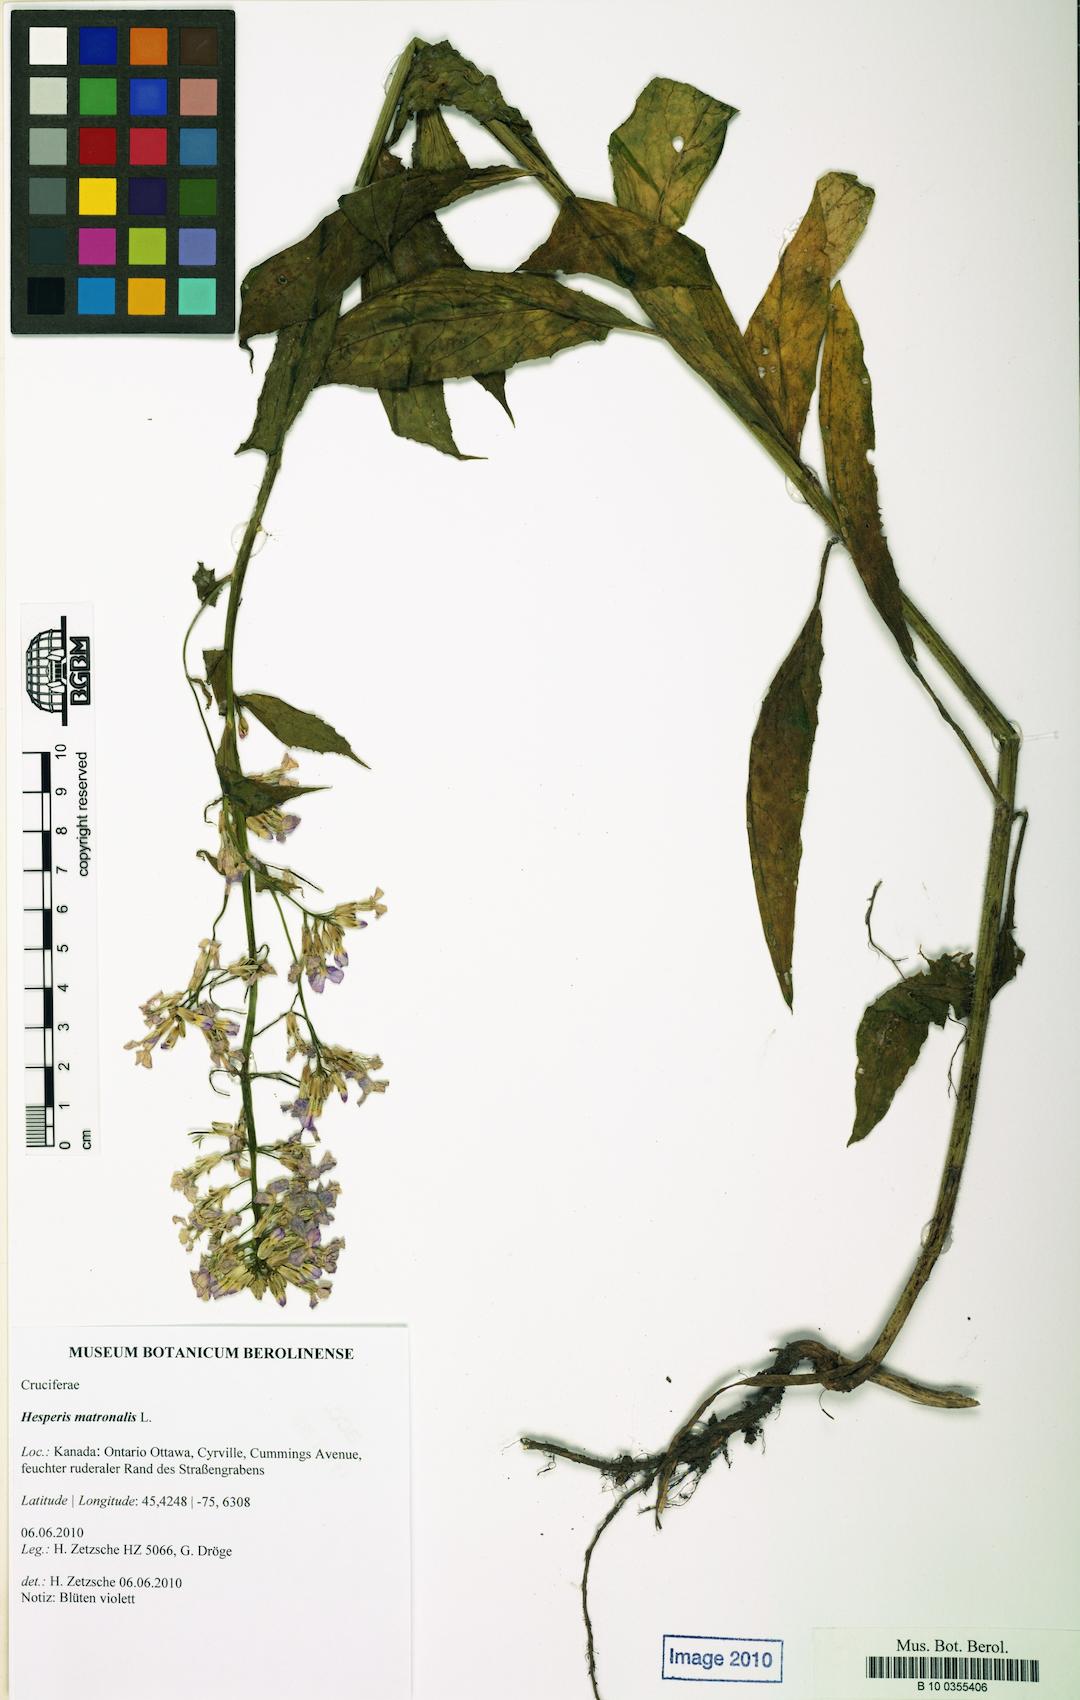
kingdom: Plantae
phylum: Tracheophyta
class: Magnoliopsida
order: Brassicales
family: Brassicaceae
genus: Hesperis
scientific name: Hesperis matronalis
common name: Dame's-violet
